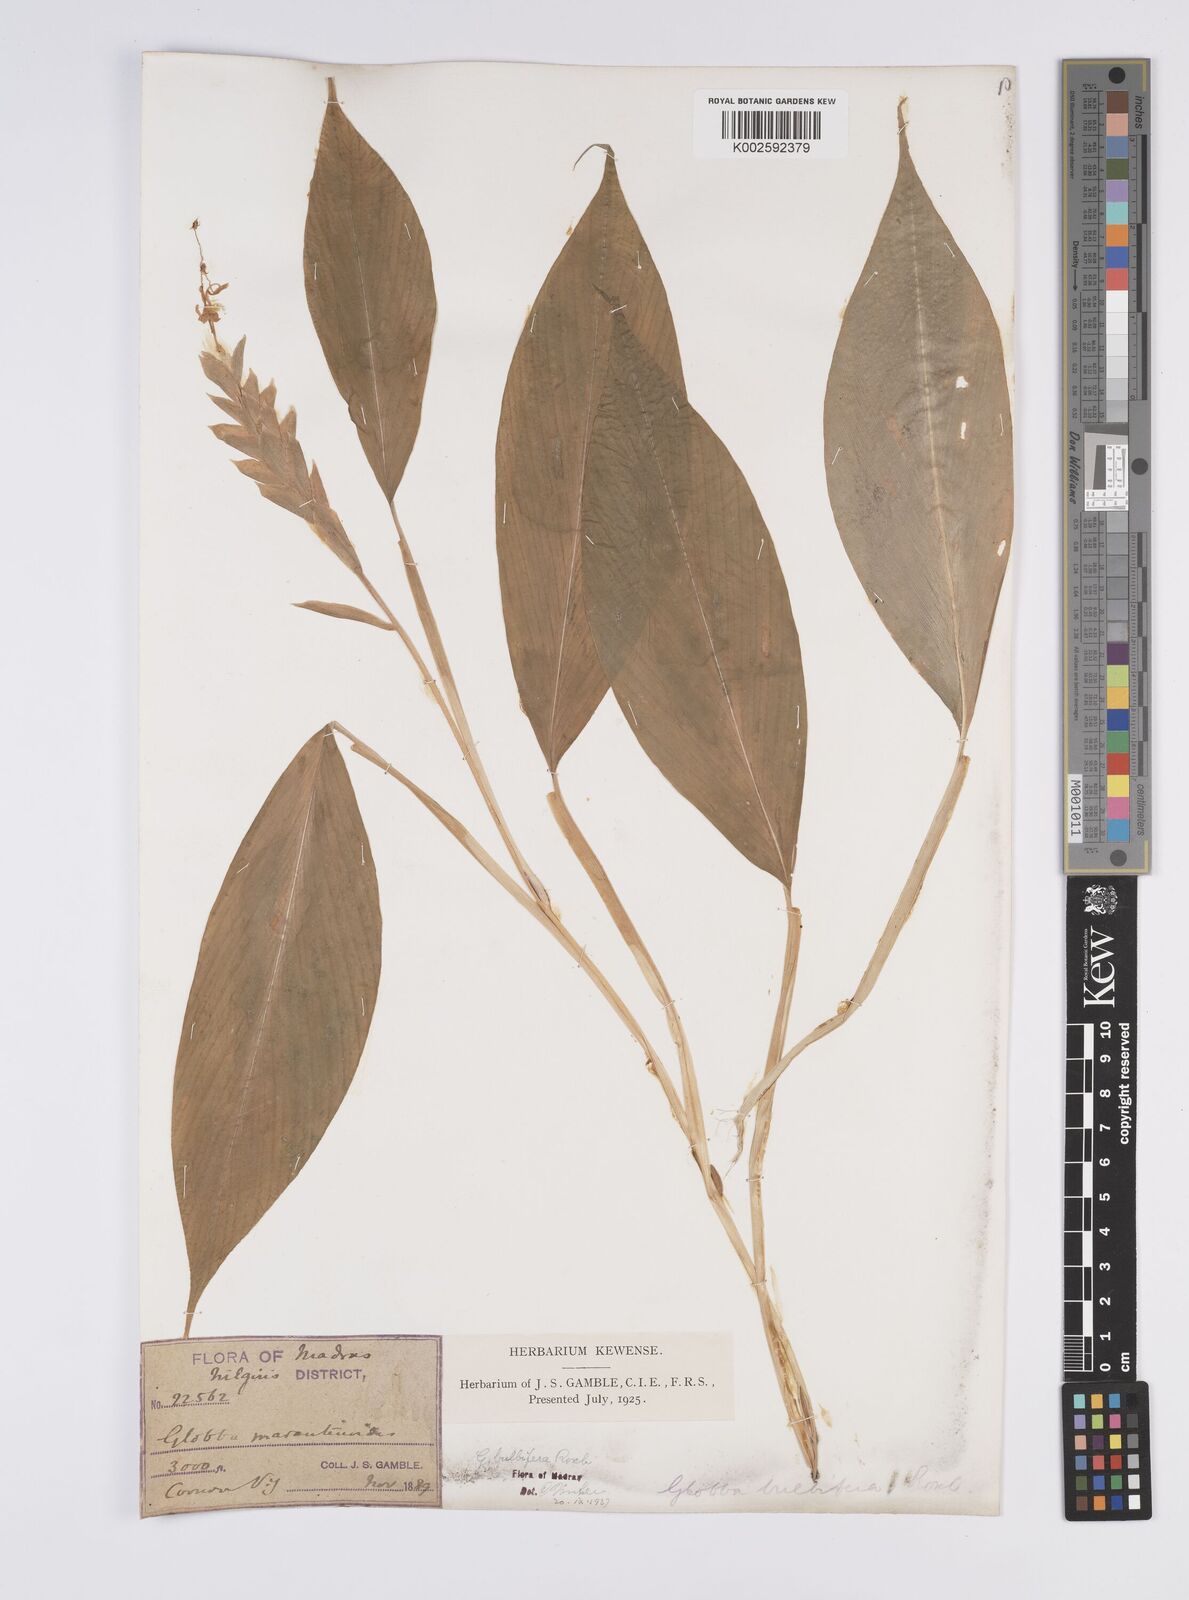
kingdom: Plantae
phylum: Tracheophyta
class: Liliopsida
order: Zingiberales
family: Zingiberaceae
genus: Globba
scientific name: Globba marantina
